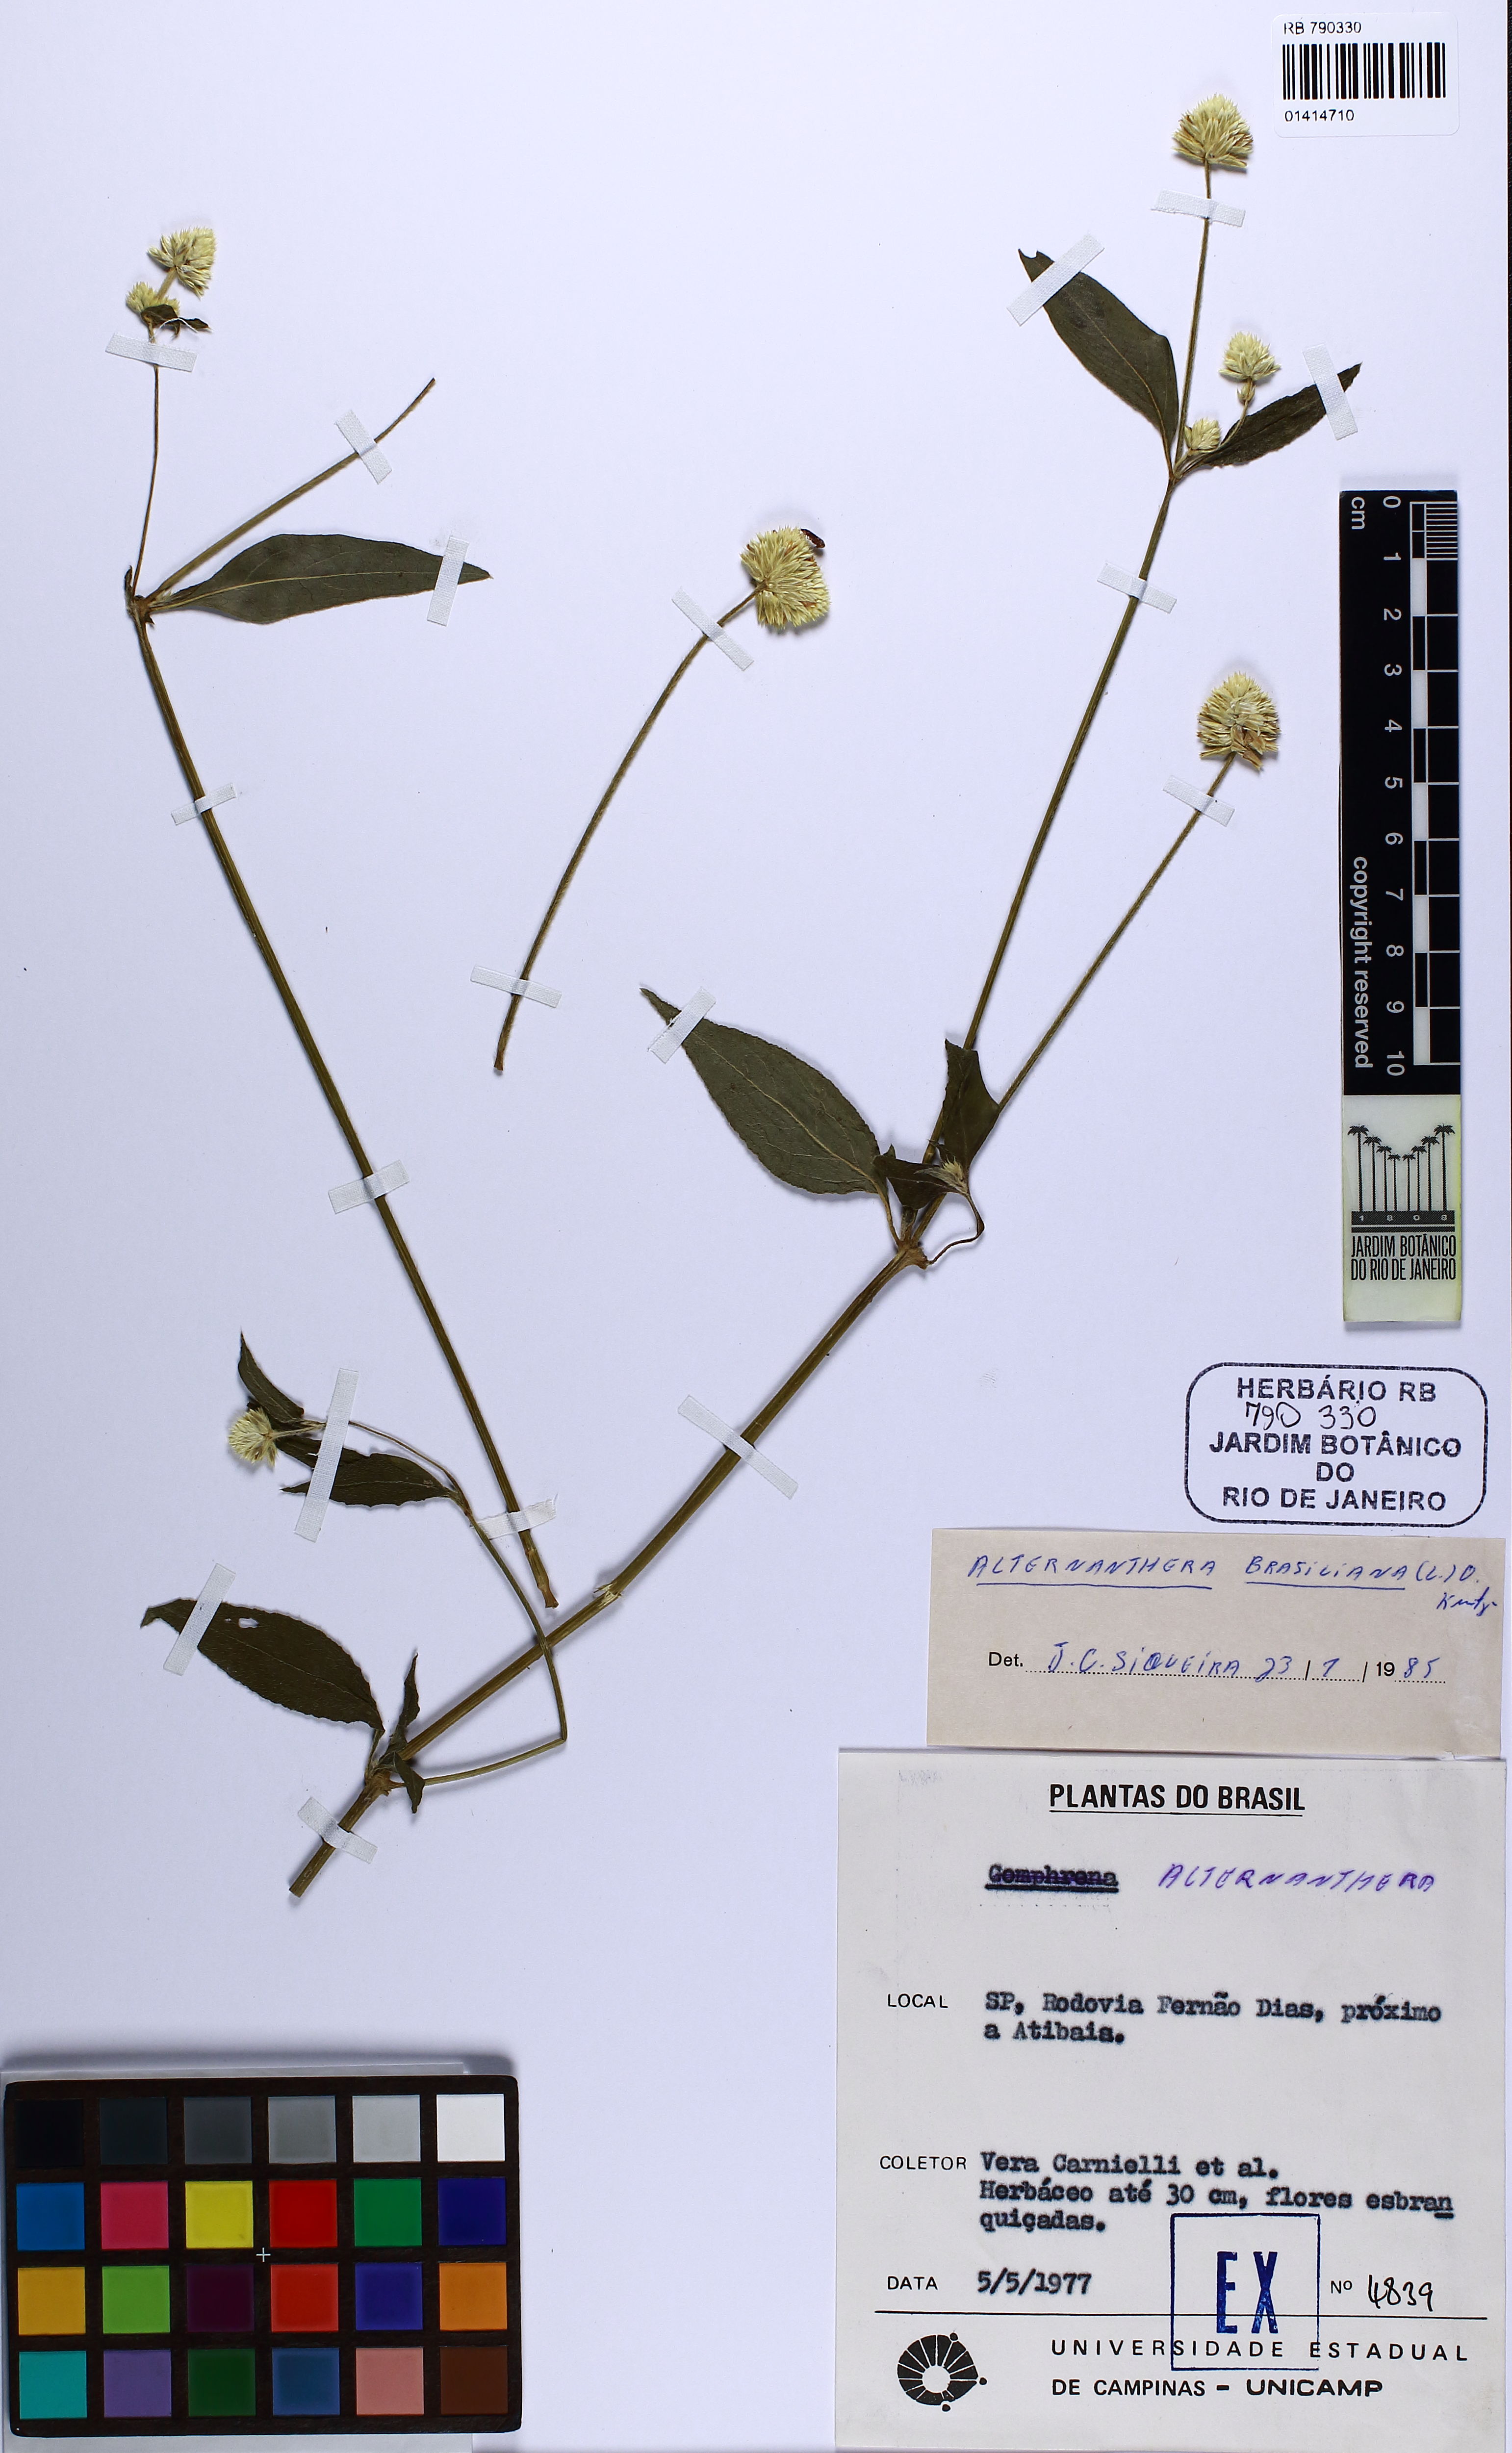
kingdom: Plantae
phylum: Tracheophyta
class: Magnoliopsida
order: Caryophyllales
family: Amaranthaceae
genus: Alternanthera
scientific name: Alternanthera brasiliana
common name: Brazilian joyweed
